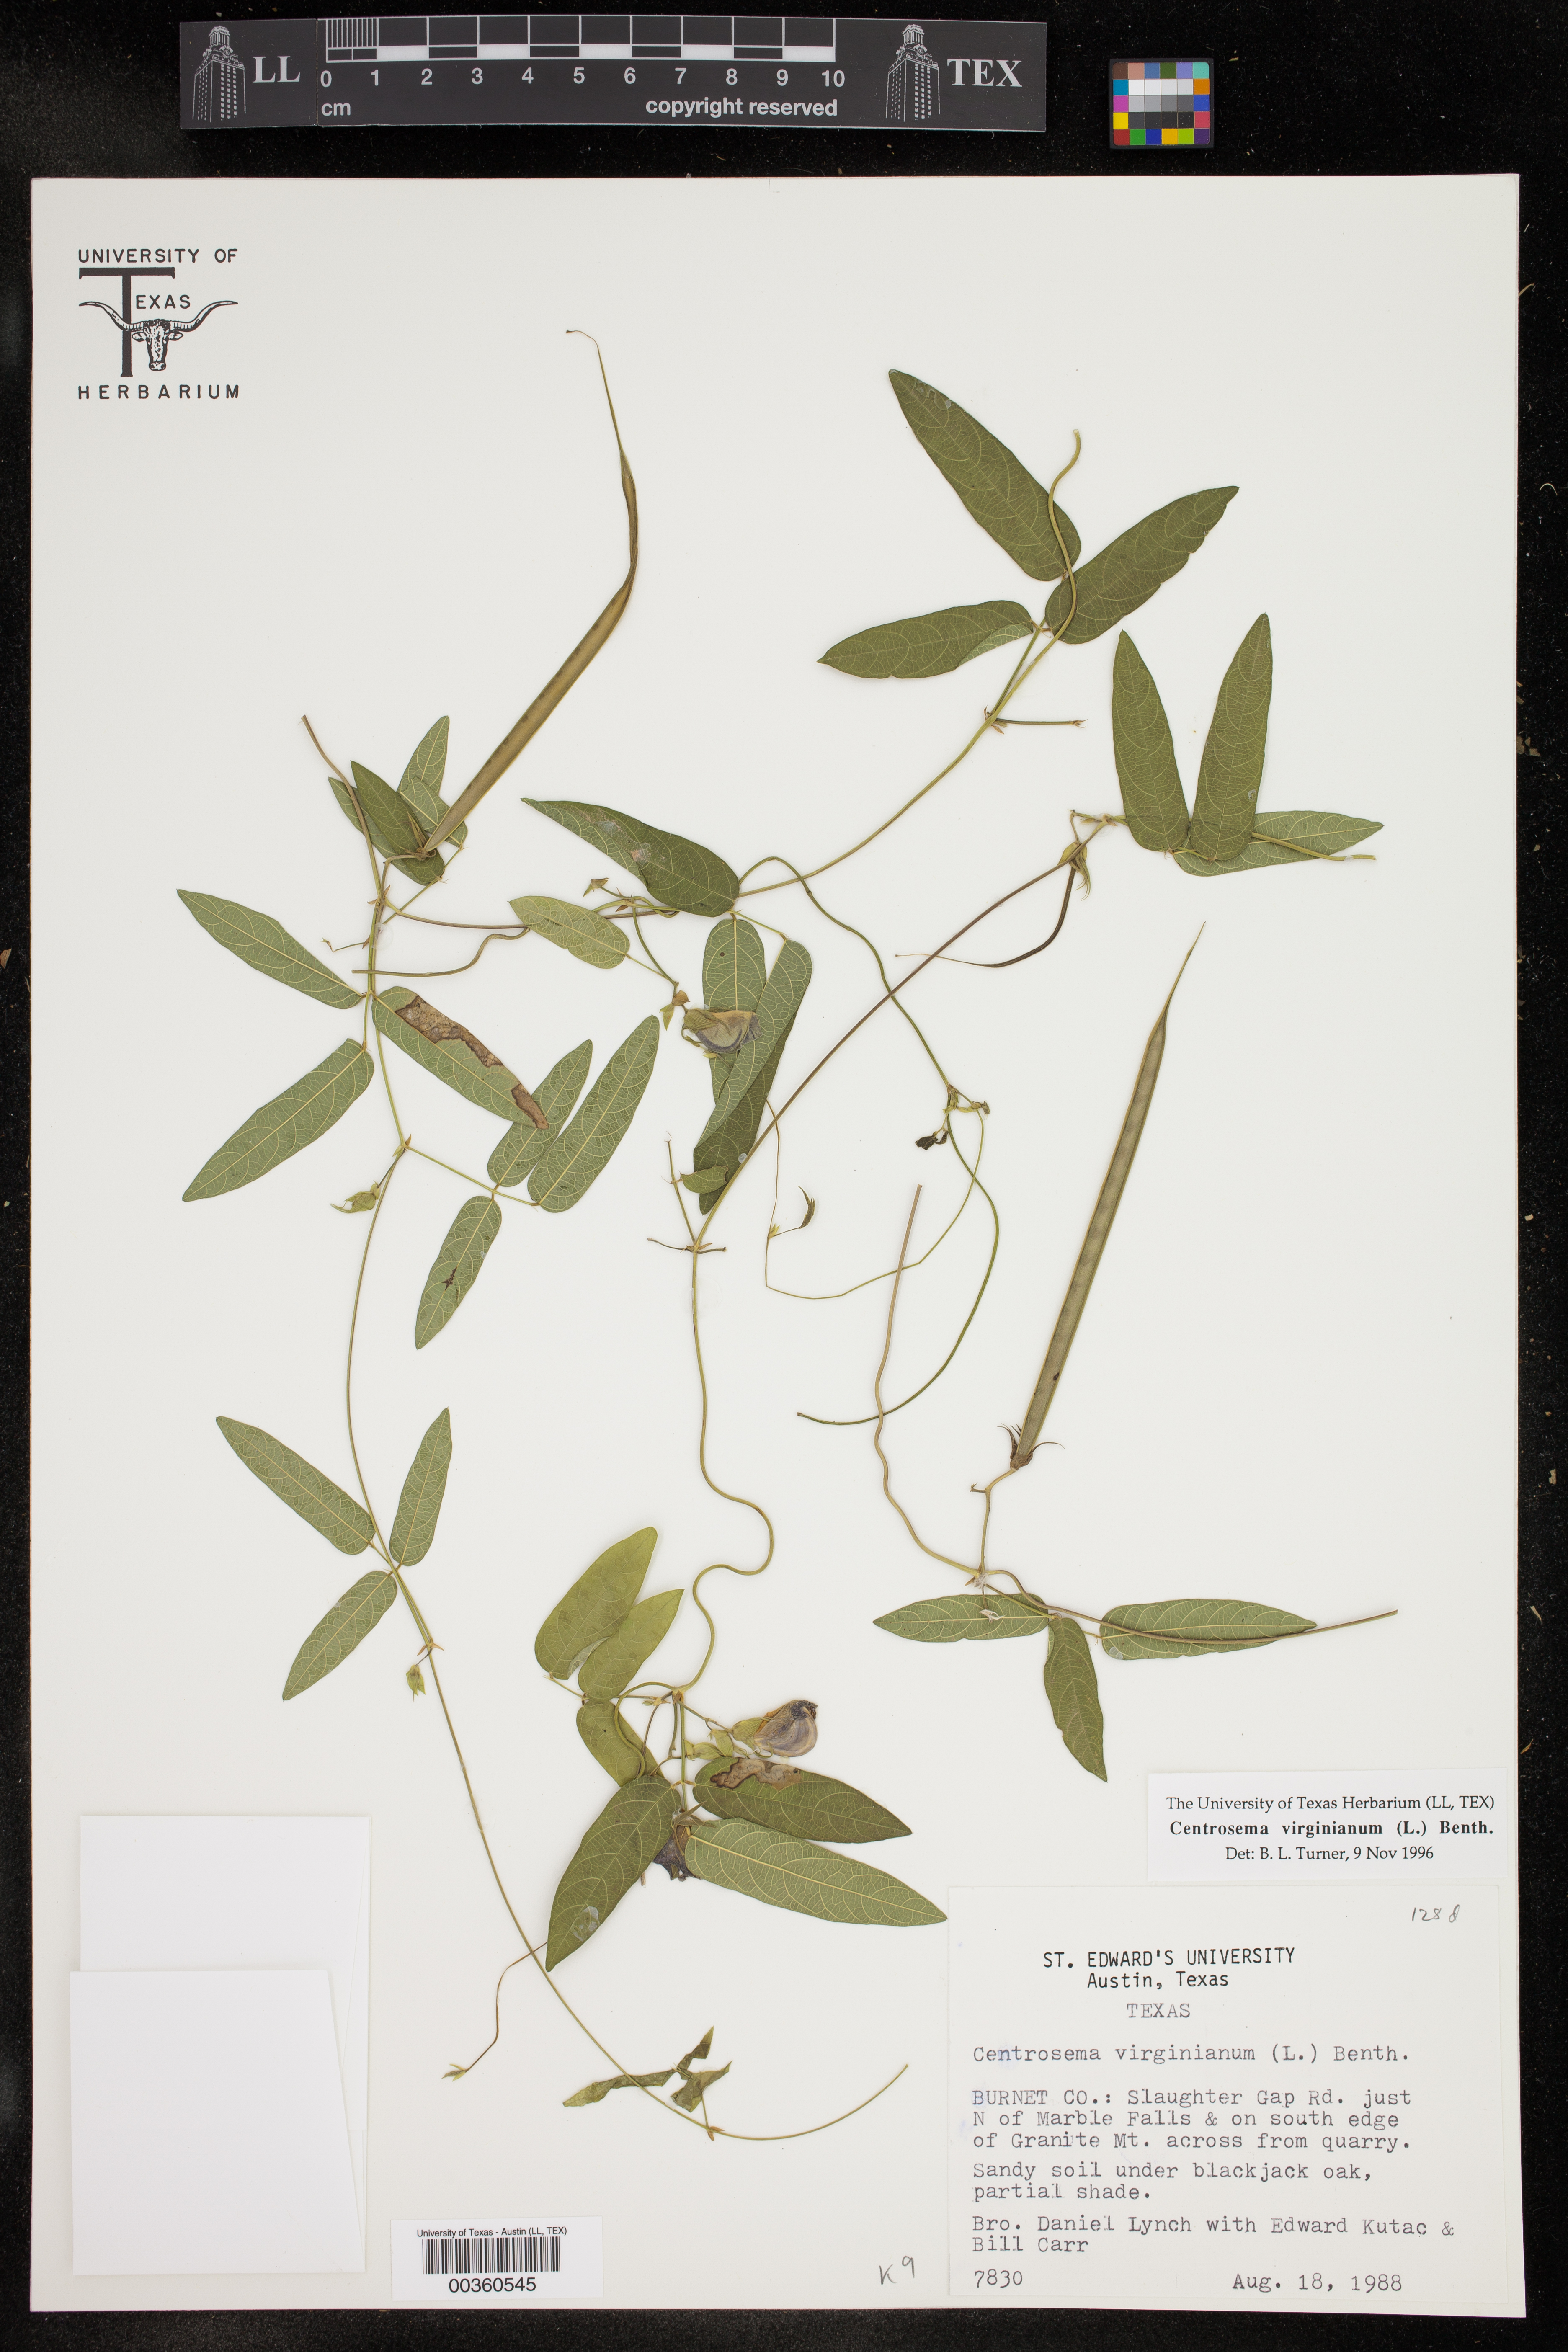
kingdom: Plantae
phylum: Tracheophyta
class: Magnoliopsida
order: Fabales
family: Fabaceae
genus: Centrosema
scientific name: Centrosema virginianum
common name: Butterfly-pea
